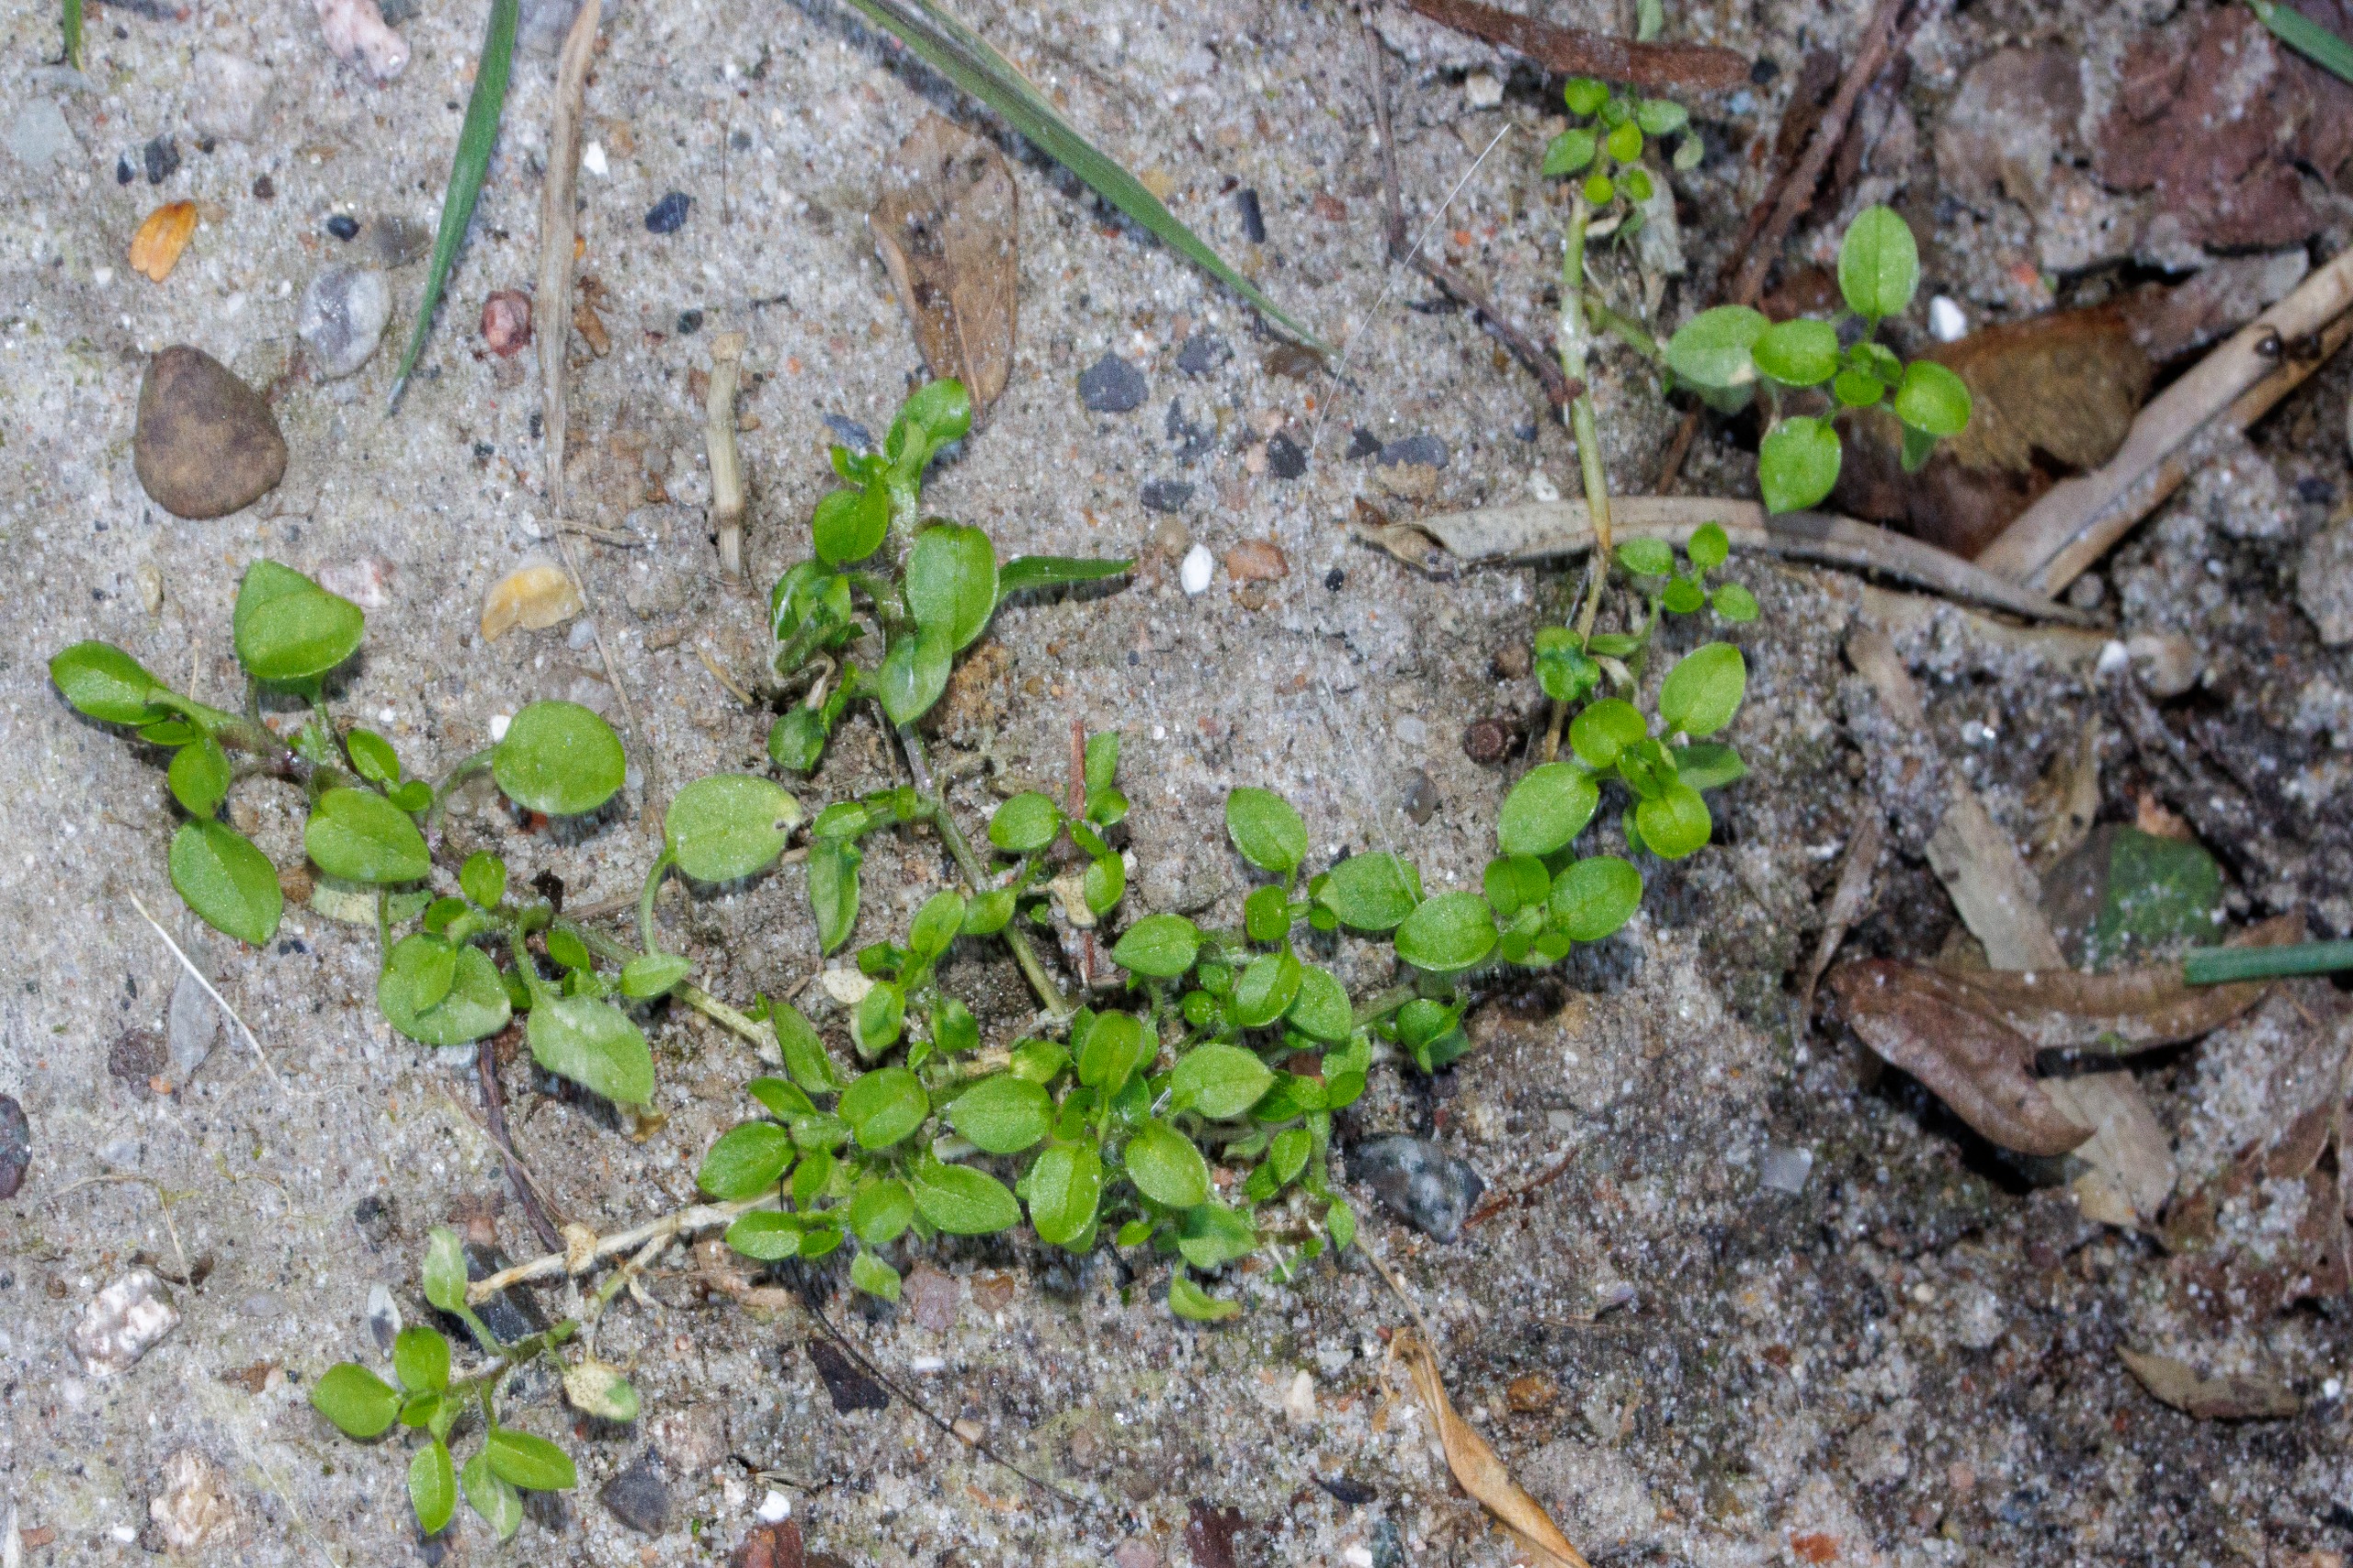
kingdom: Plantae
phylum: Tracheophyta
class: Magnoliopsida
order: Caryophyllales
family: Caryophyllaceae
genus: Stellaria
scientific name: Stellaria media
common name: Almindelig fuglegræs
